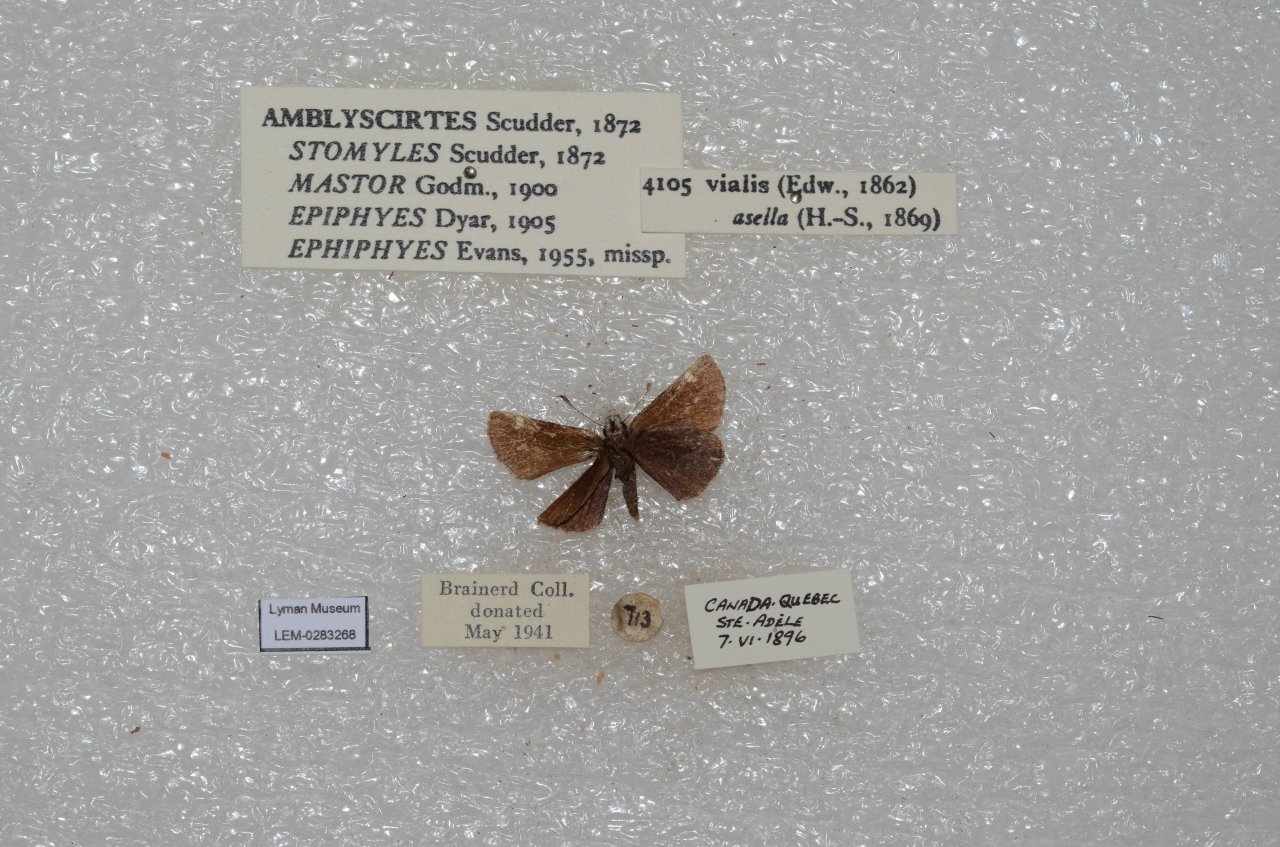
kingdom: Animalia
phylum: Arthropoda
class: Insecta
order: Lepidoptera
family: Hesperiidae
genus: Mastor
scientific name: Mastor vialis
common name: Common Roadside-Skipper
